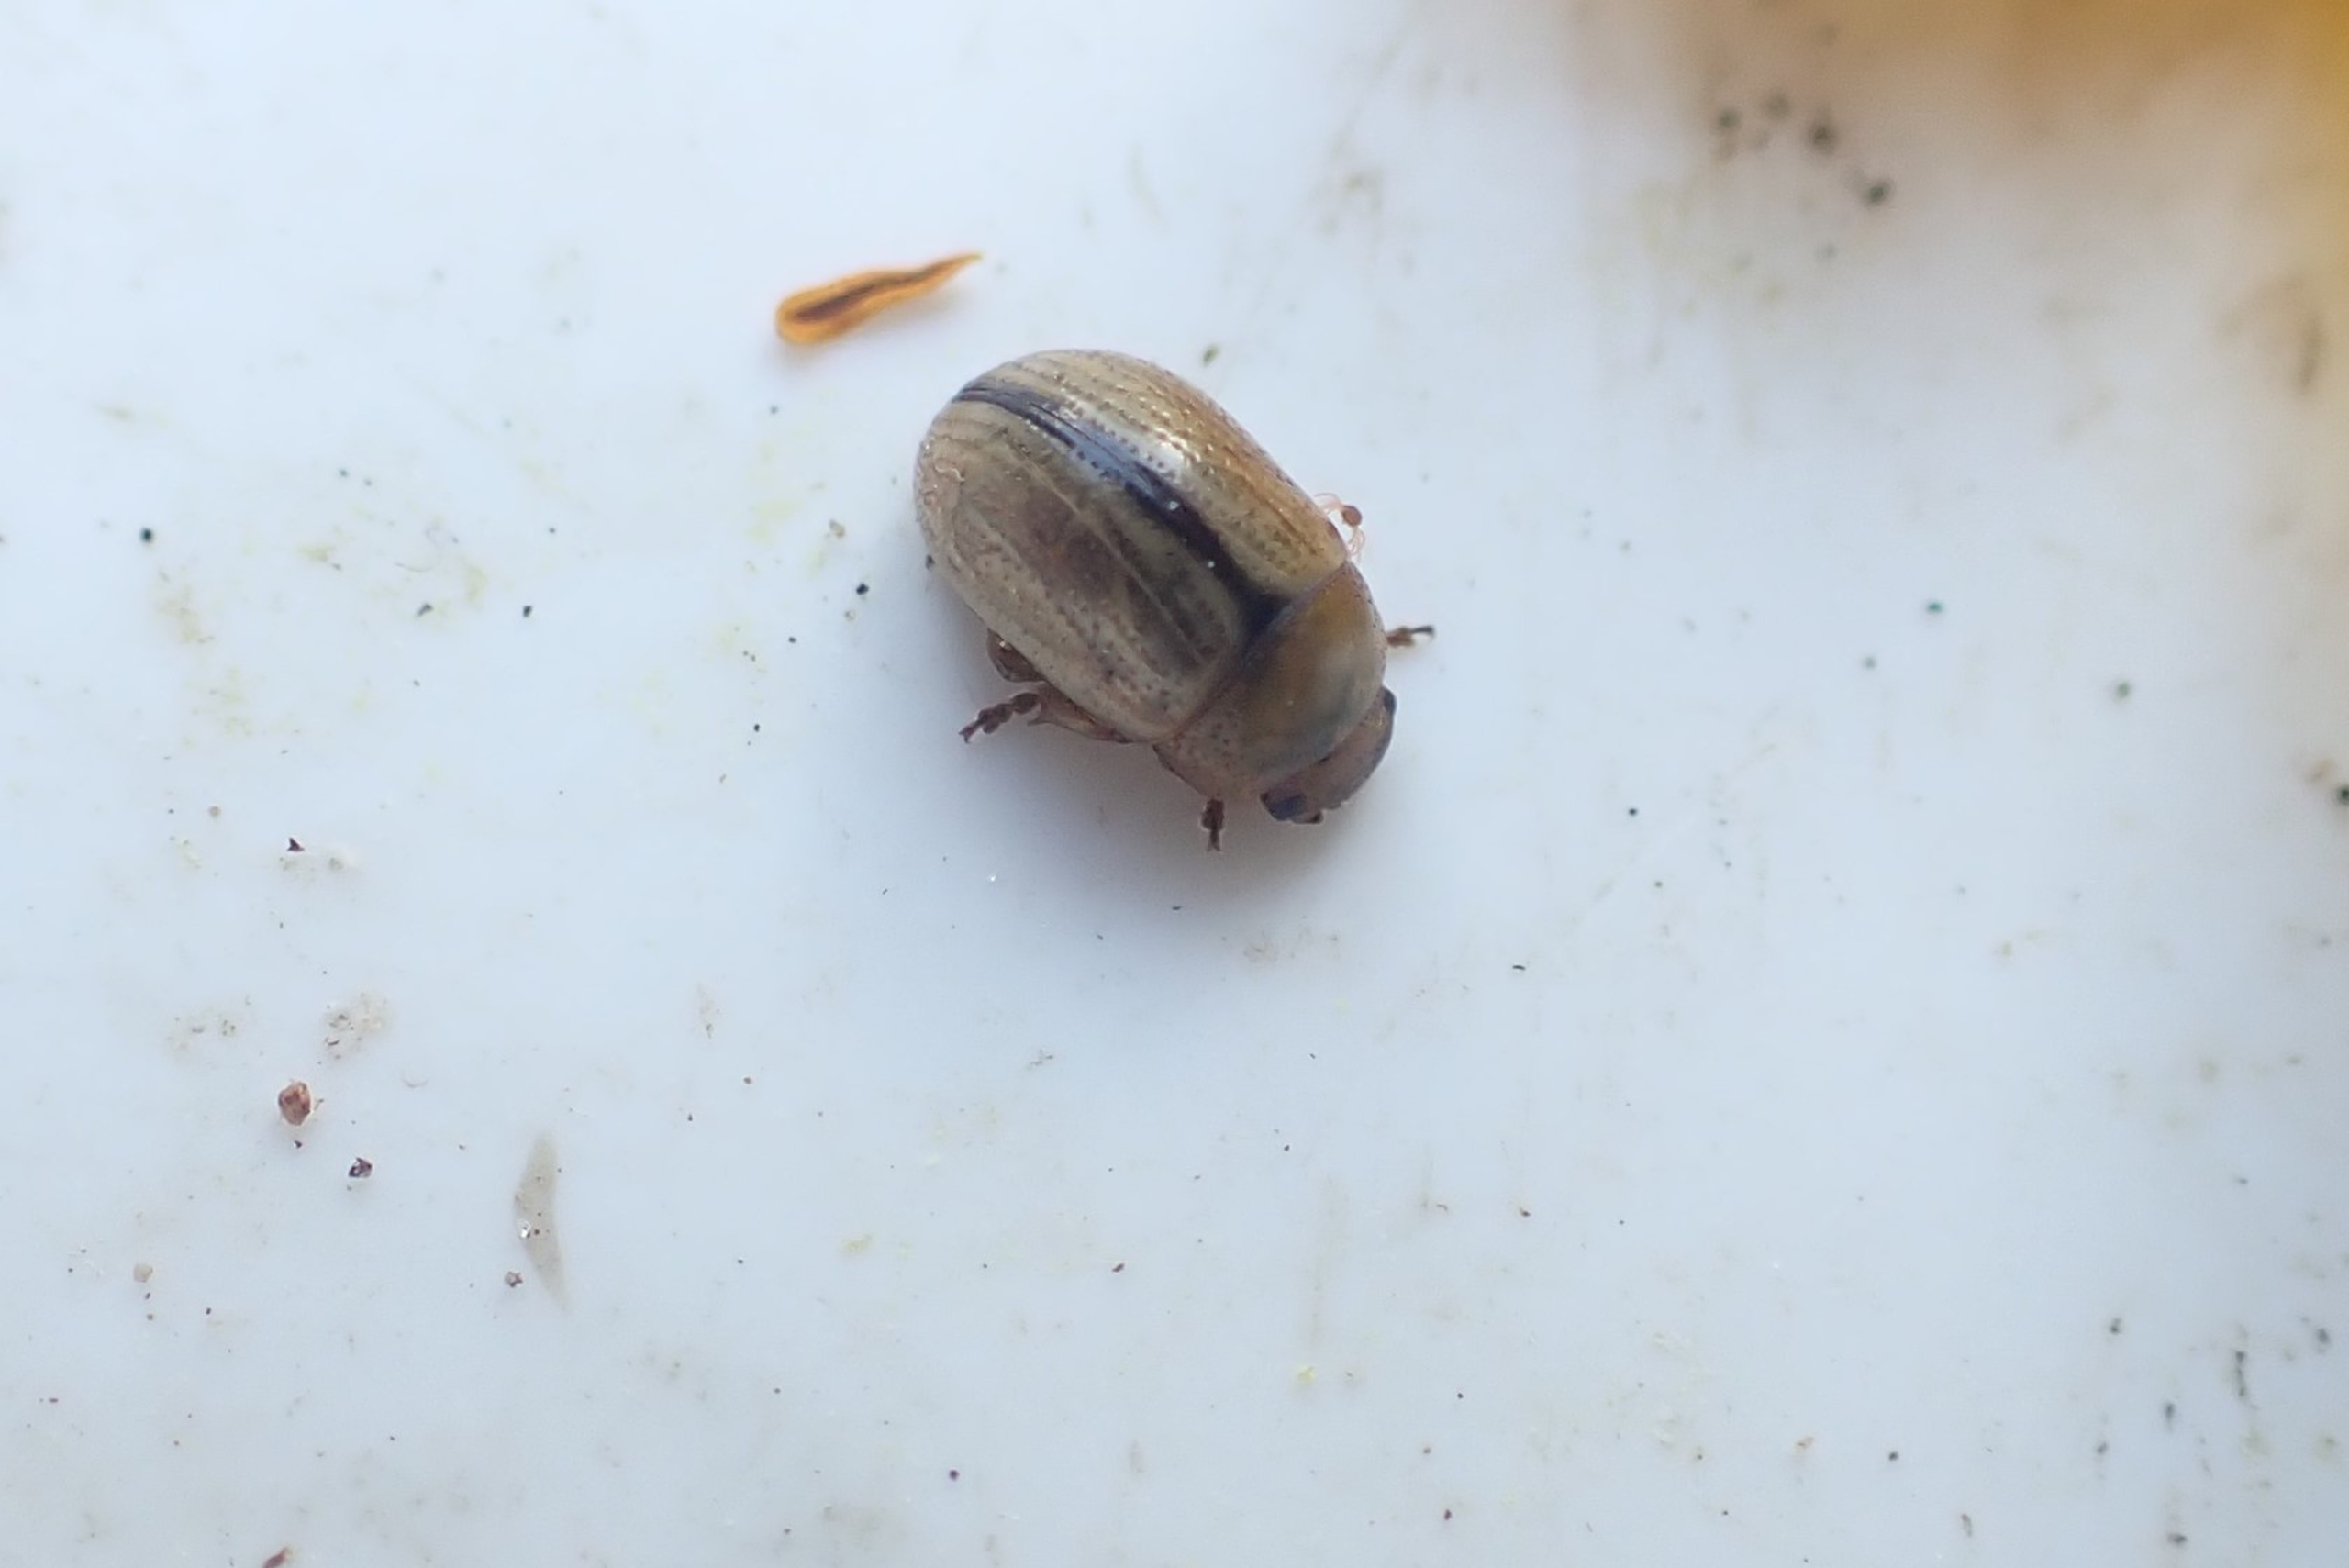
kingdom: Animalia
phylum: Arthropoda
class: Insecta
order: Coleoptera
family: Chrysomelidae
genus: Gonioctena
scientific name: Gonioctena olivacea
